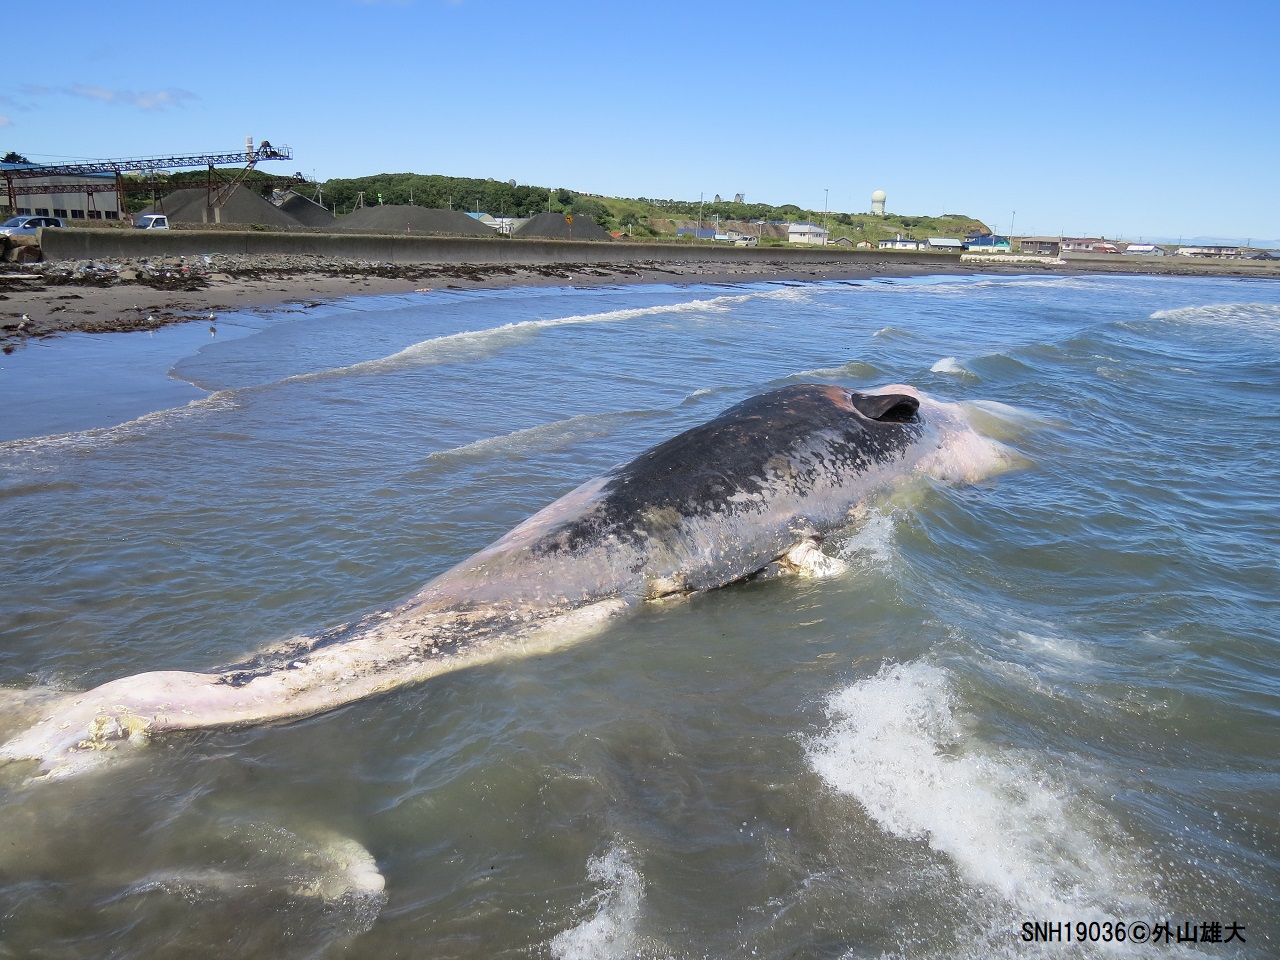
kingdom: Animalia
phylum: Chordata
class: Mammalia
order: Cetacea
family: Physeteridae
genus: Physeter
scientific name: Physeter macrocephalus
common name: Sperm whale
